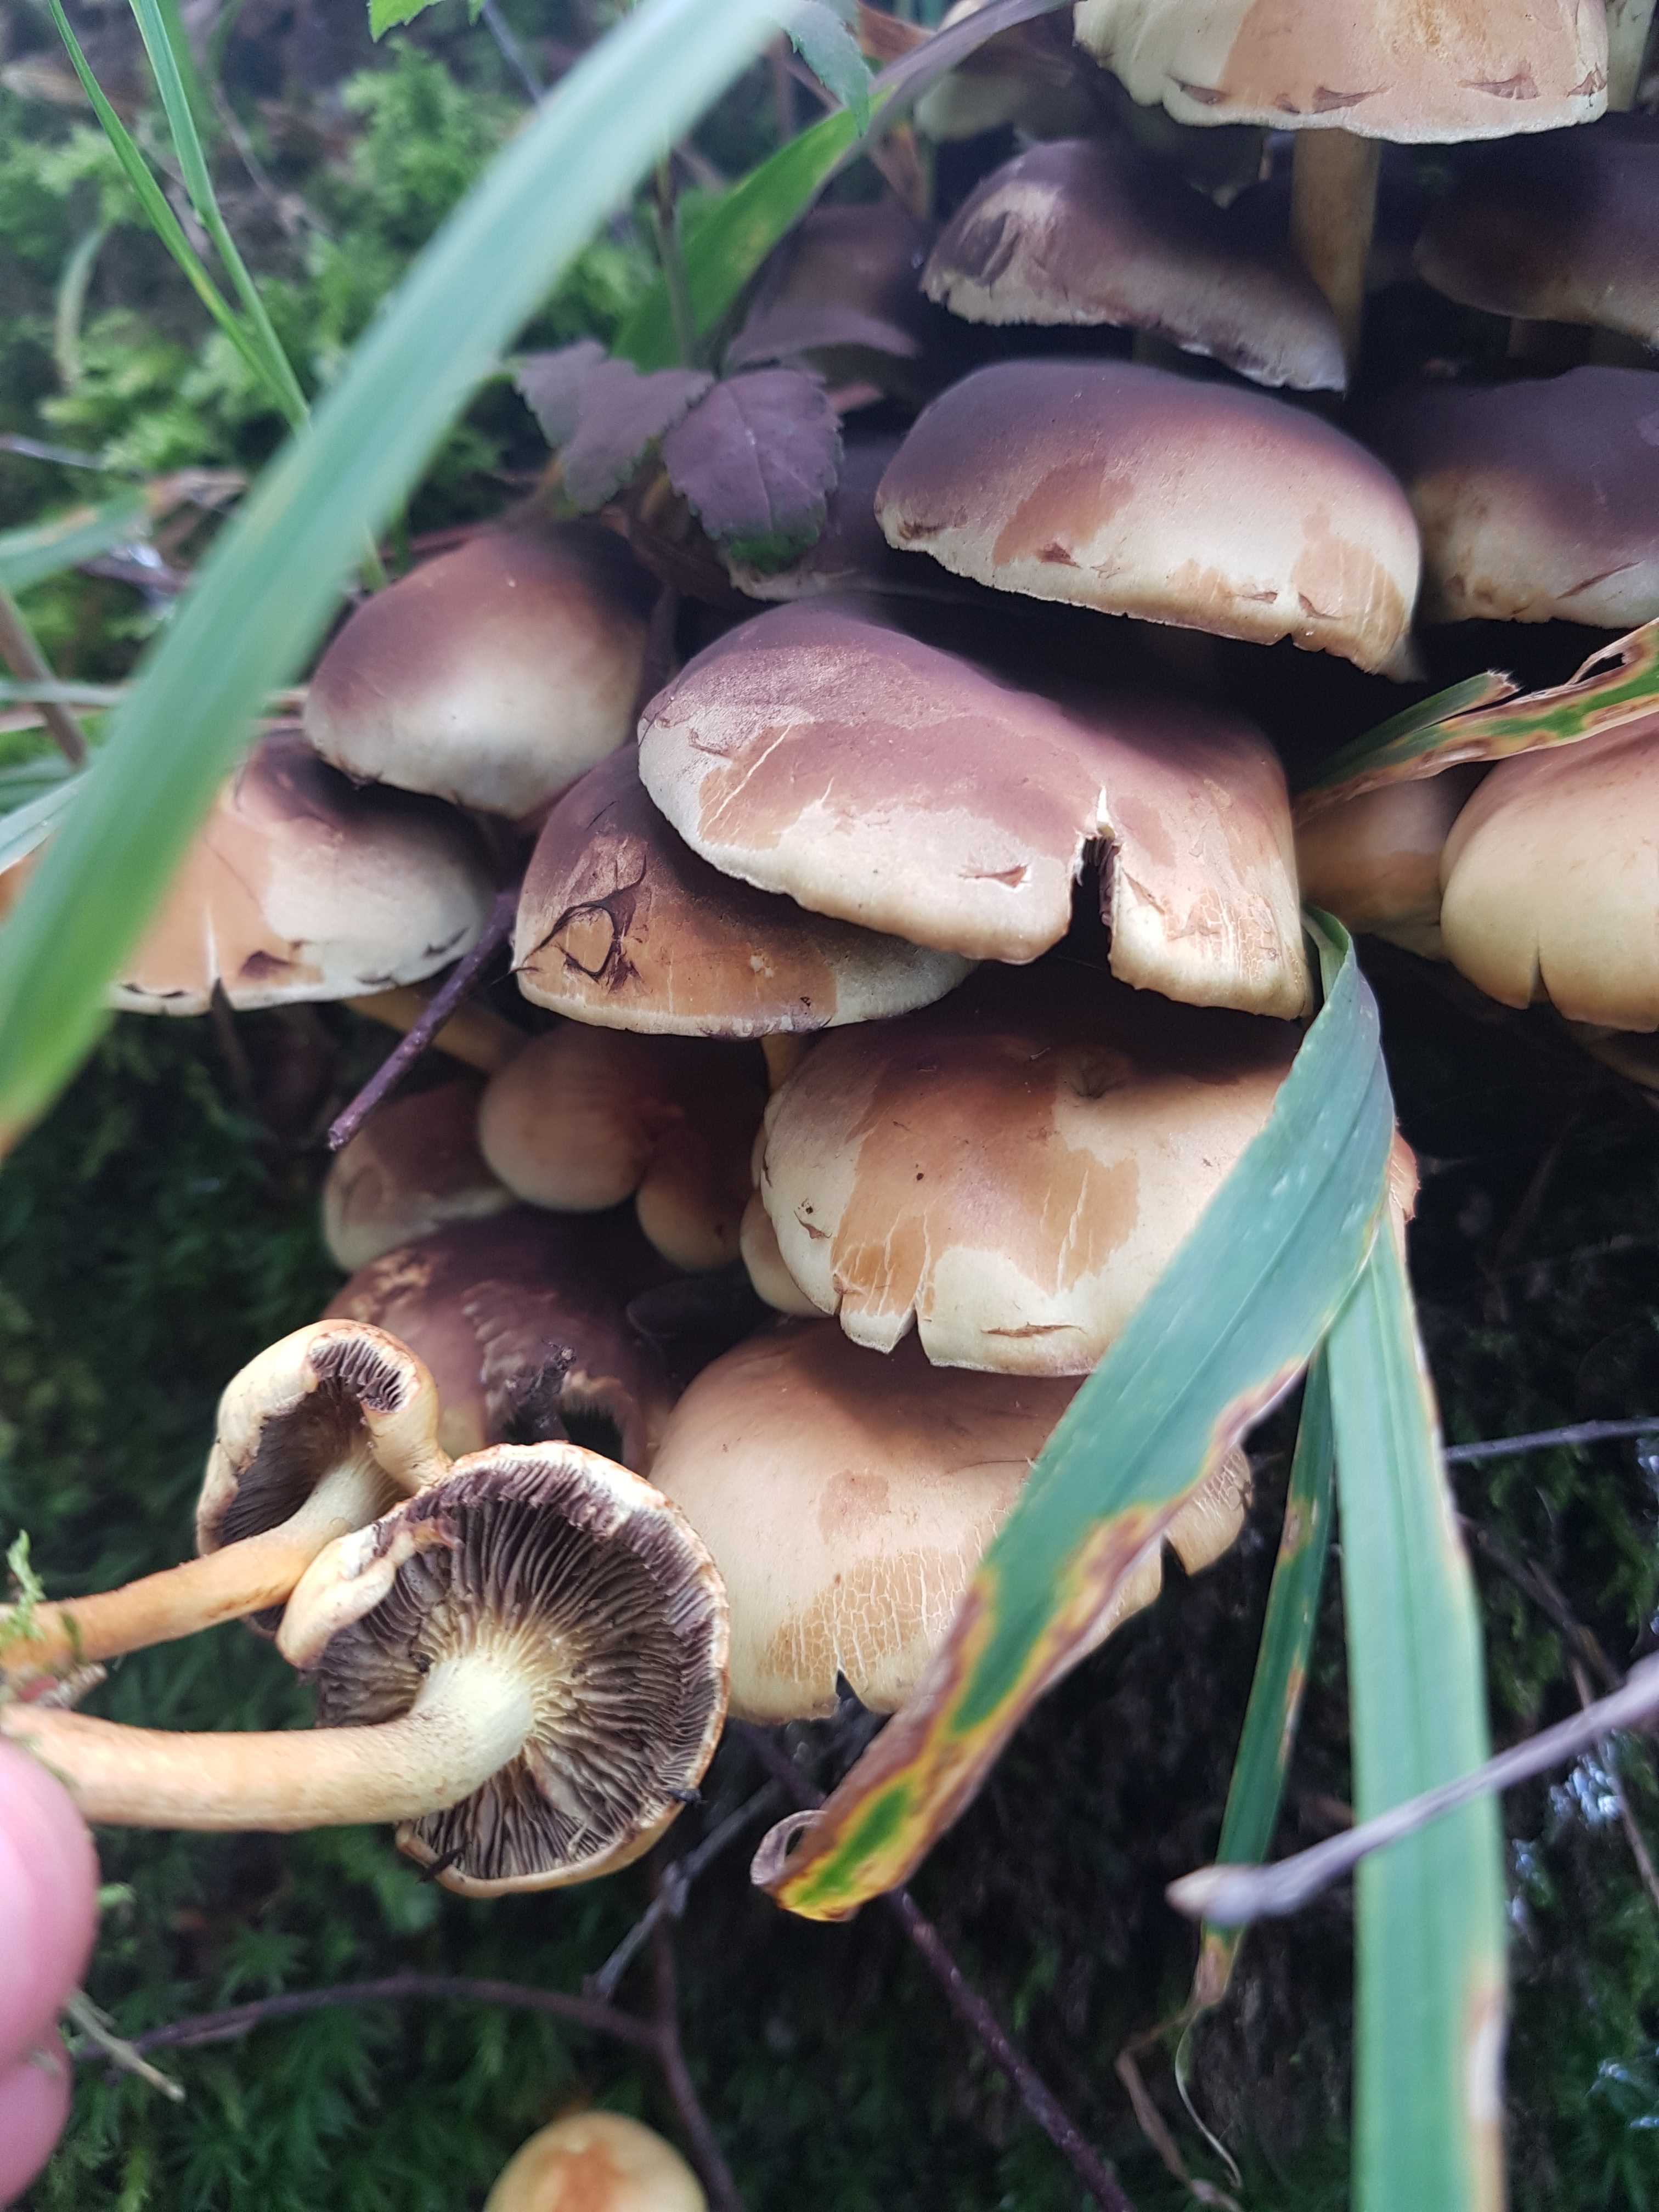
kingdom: Fungi
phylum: Basidiomycota
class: Agaricomycetes
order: Agaricales
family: Strophariaceae
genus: Hypholoma
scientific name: Hypholoma fasciculare
